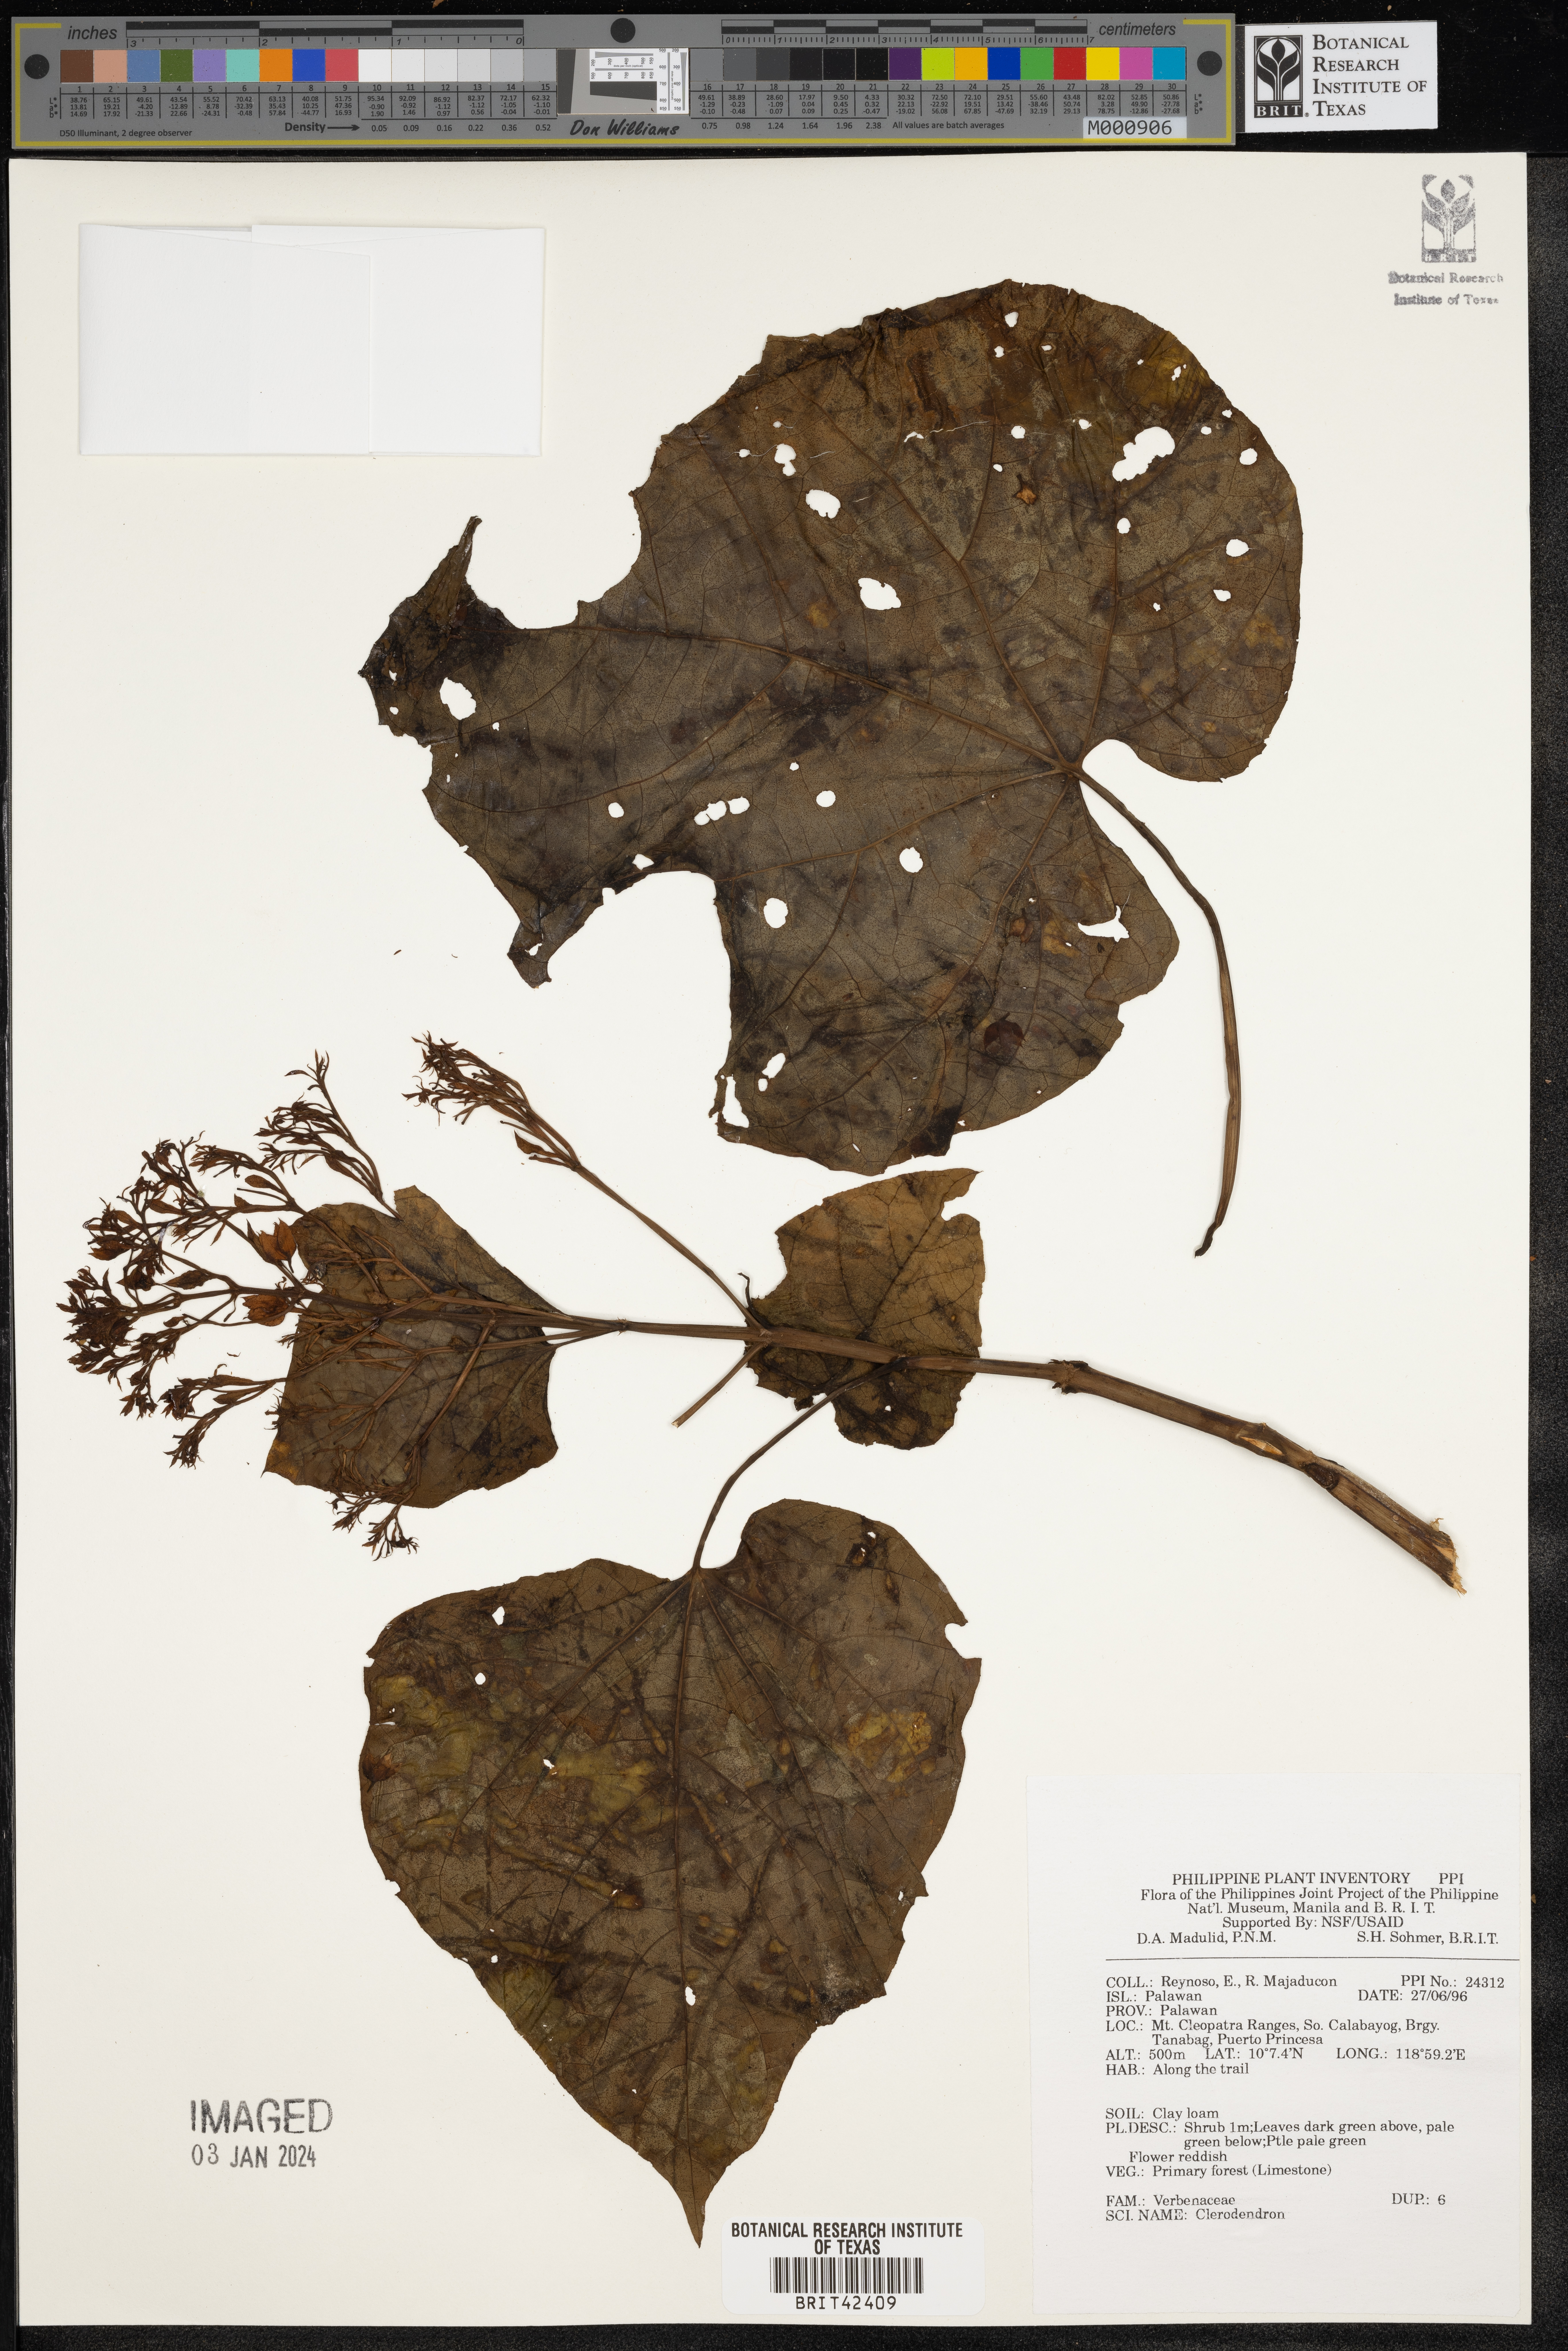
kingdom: Plantae
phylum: Tracheophyta
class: Magnoliopsida
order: Lamiales
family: Lamiaceae
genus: Clerodendrum
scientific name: Clerodendrum
